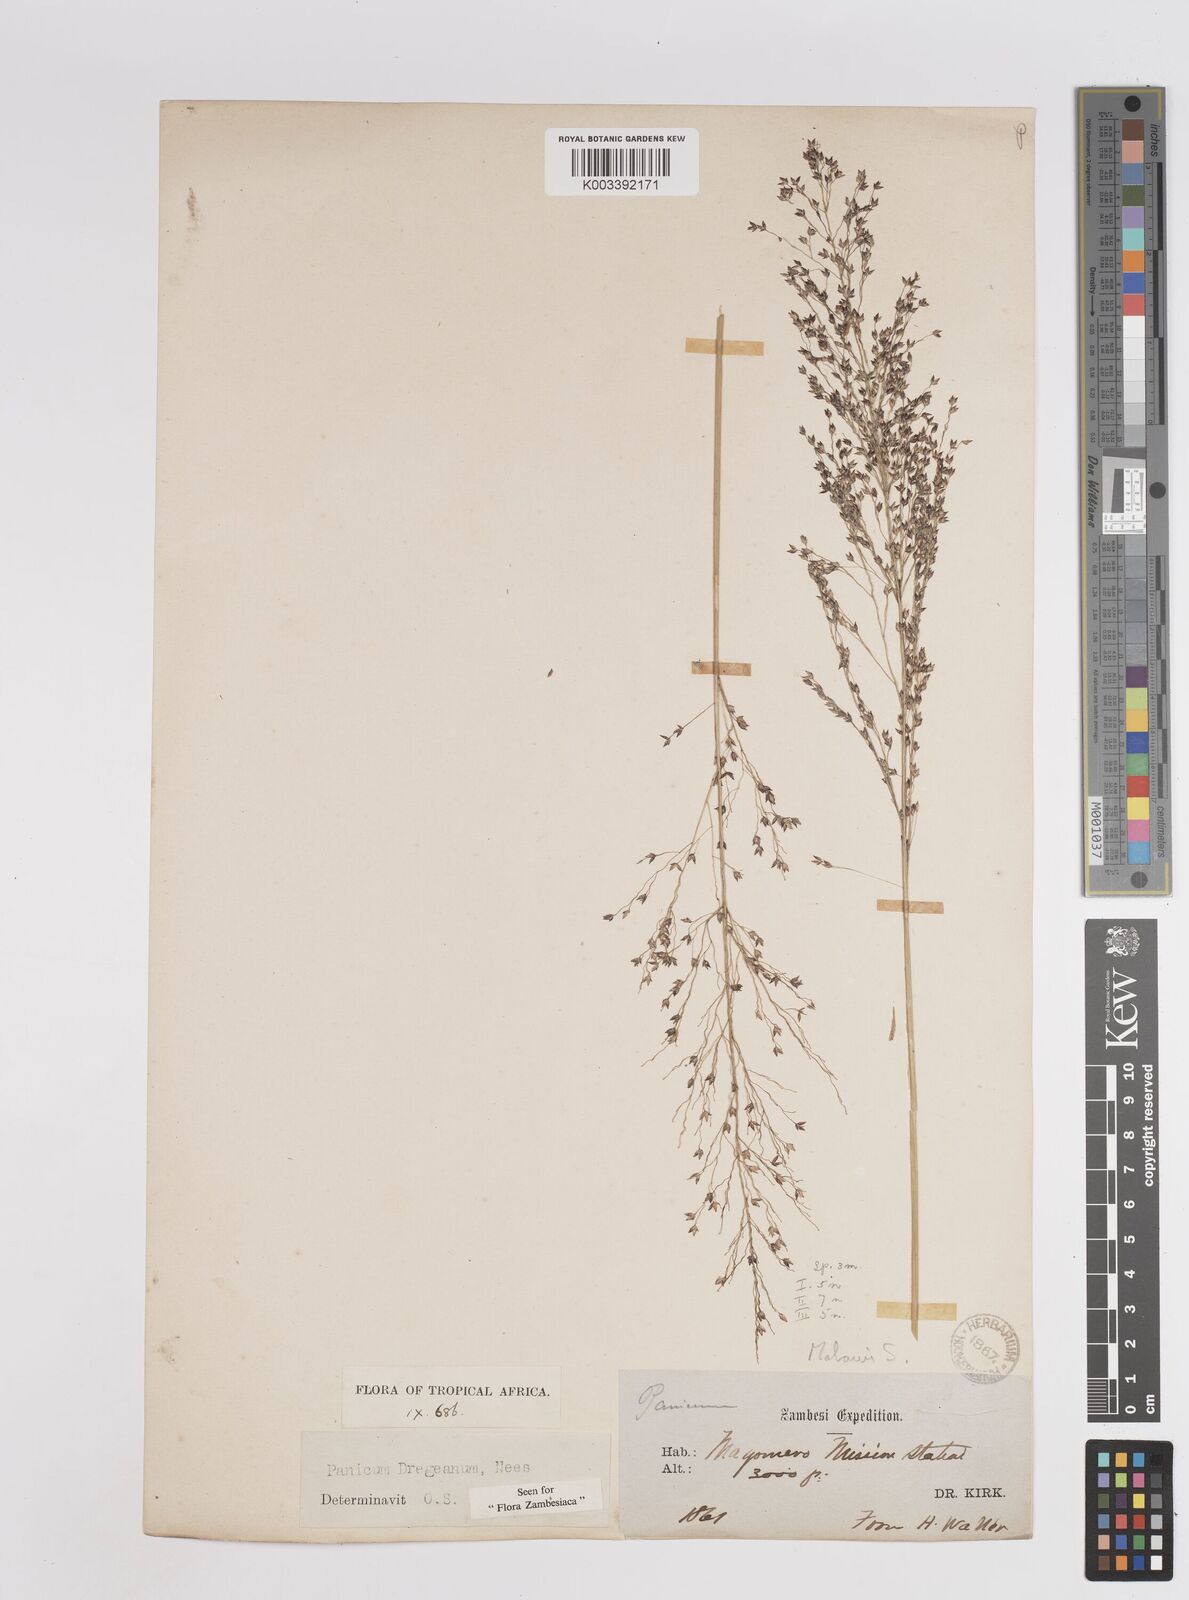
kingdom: Plantae
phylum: Tracheophyta
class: Liliopsida
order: Poales
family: Poaceae
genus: Panicum
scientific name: Panicum dregeanum
